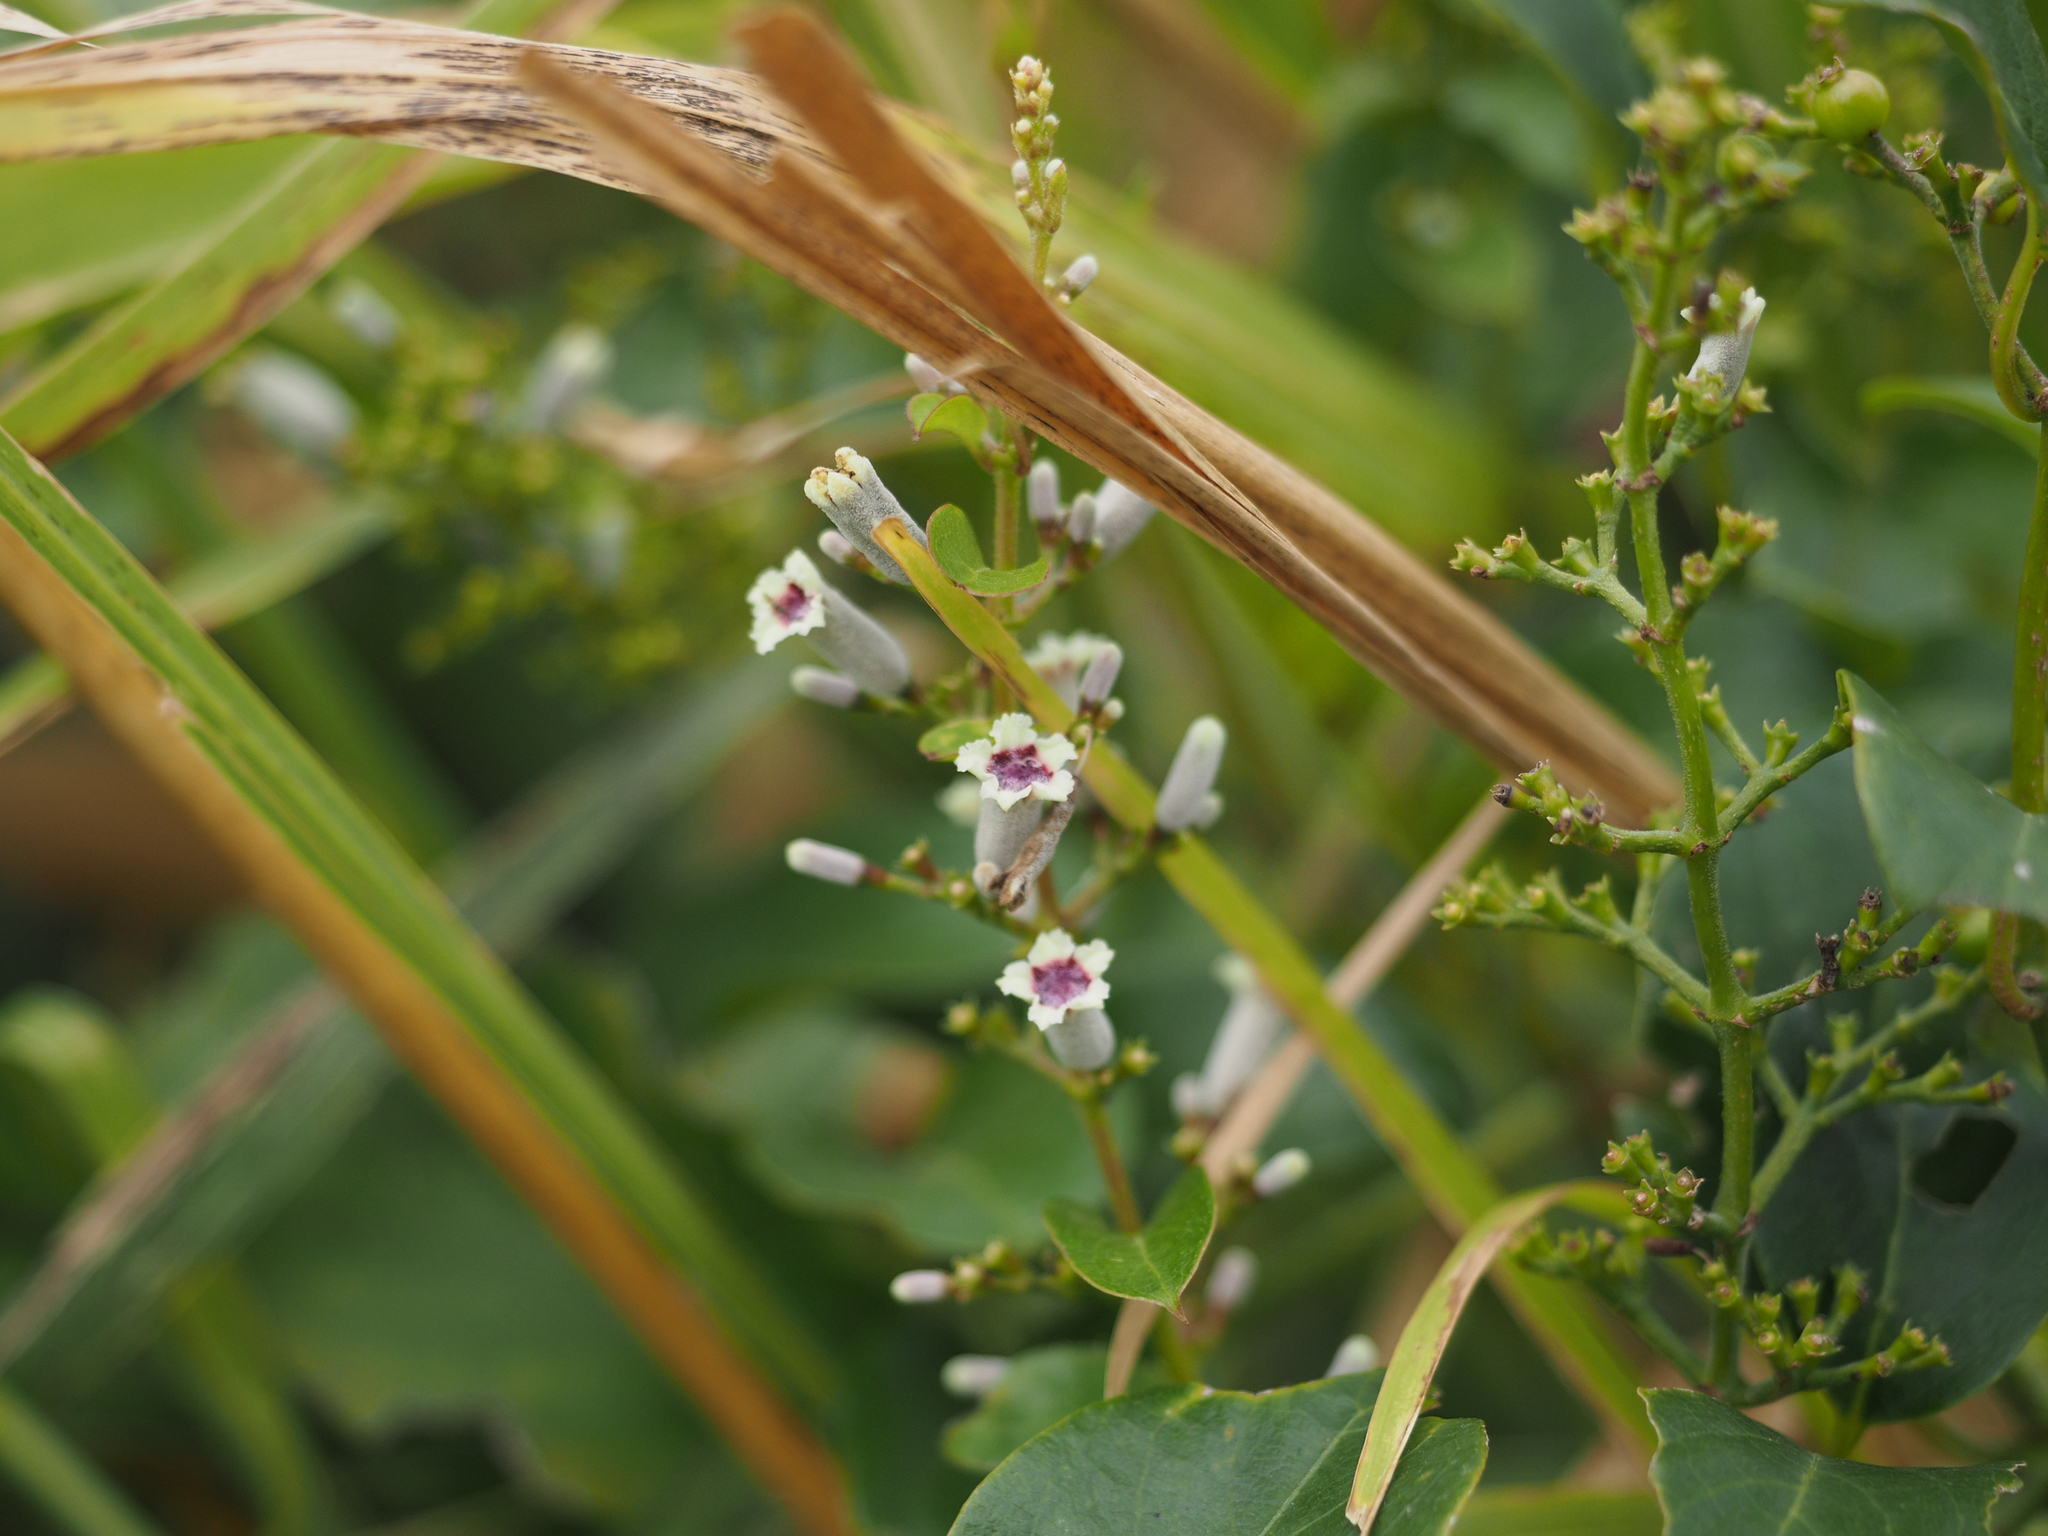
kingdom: Plantae
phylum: Tracheophyta
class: Magnoliopsida
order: Gentianales
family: Rubiaceae
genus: Paederia
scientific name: Paederia foetida
